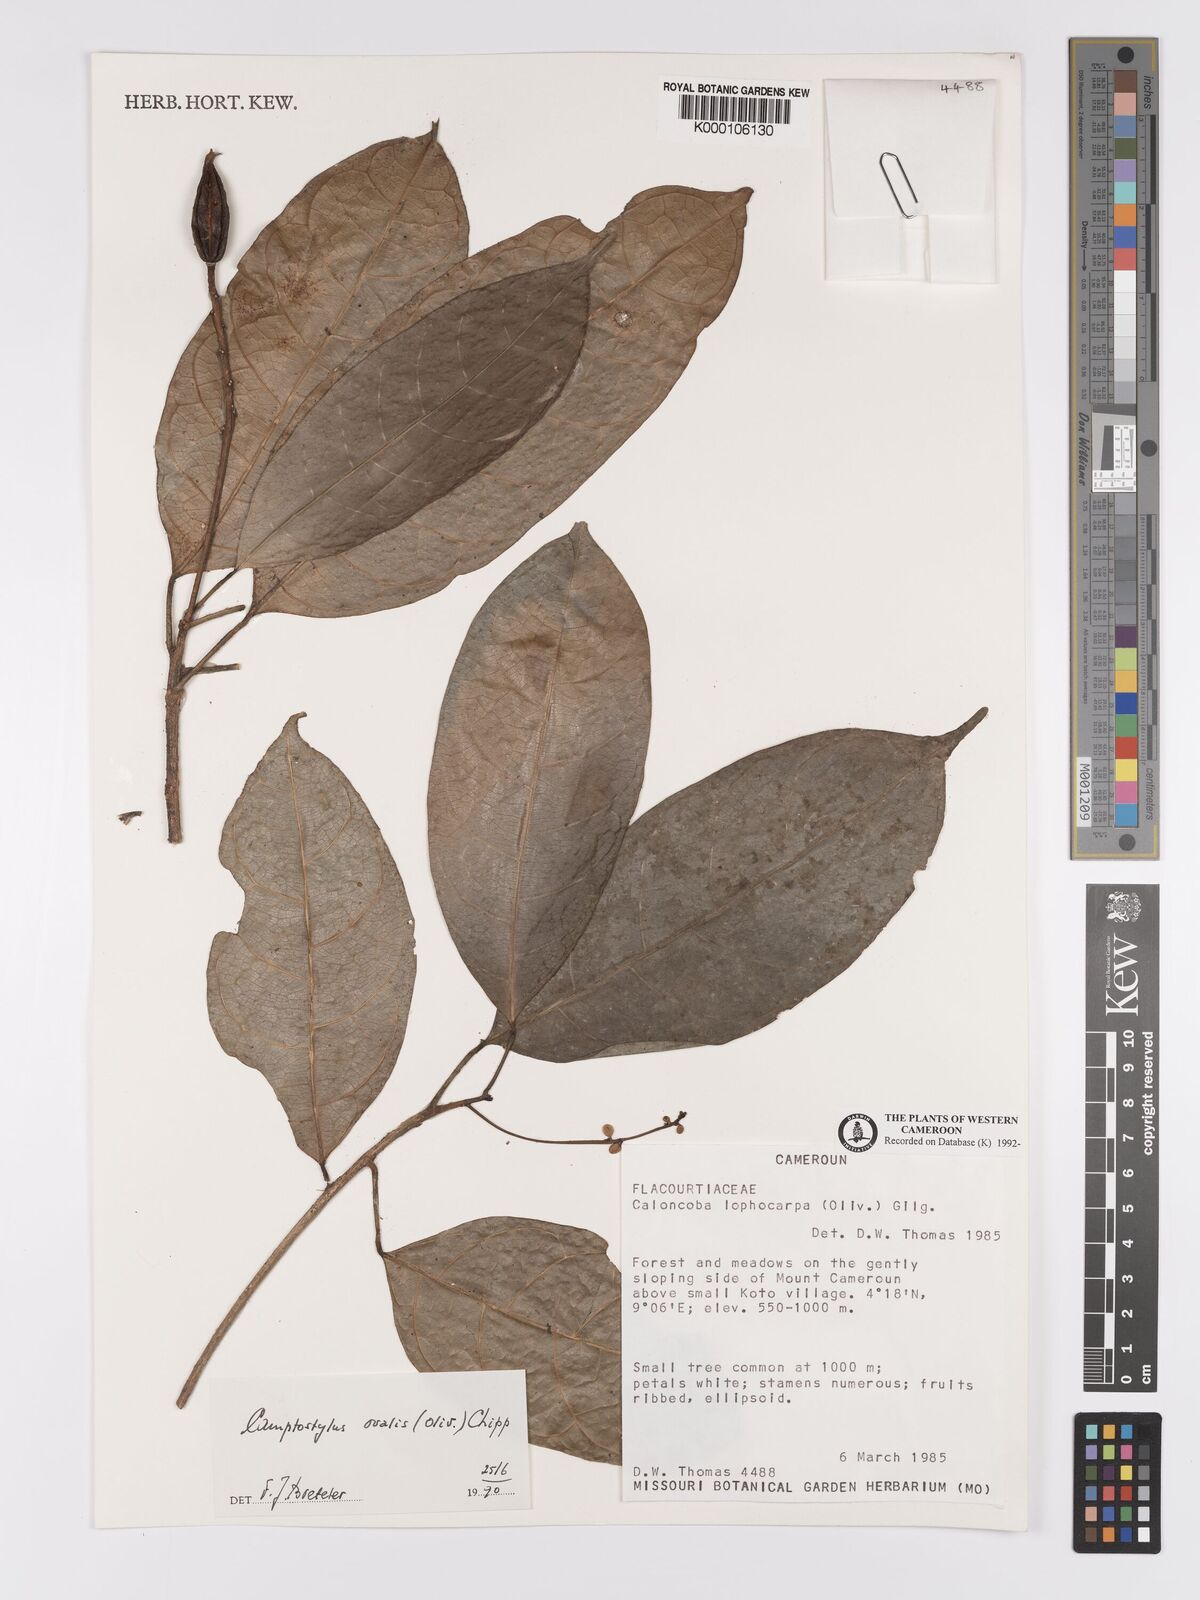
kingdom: Plantae
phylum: Tracheophyta
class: Magnoliopsida
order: Malpighiales
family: Achariaceae
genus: Camptostylus
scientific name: Camptostylus ovalis
